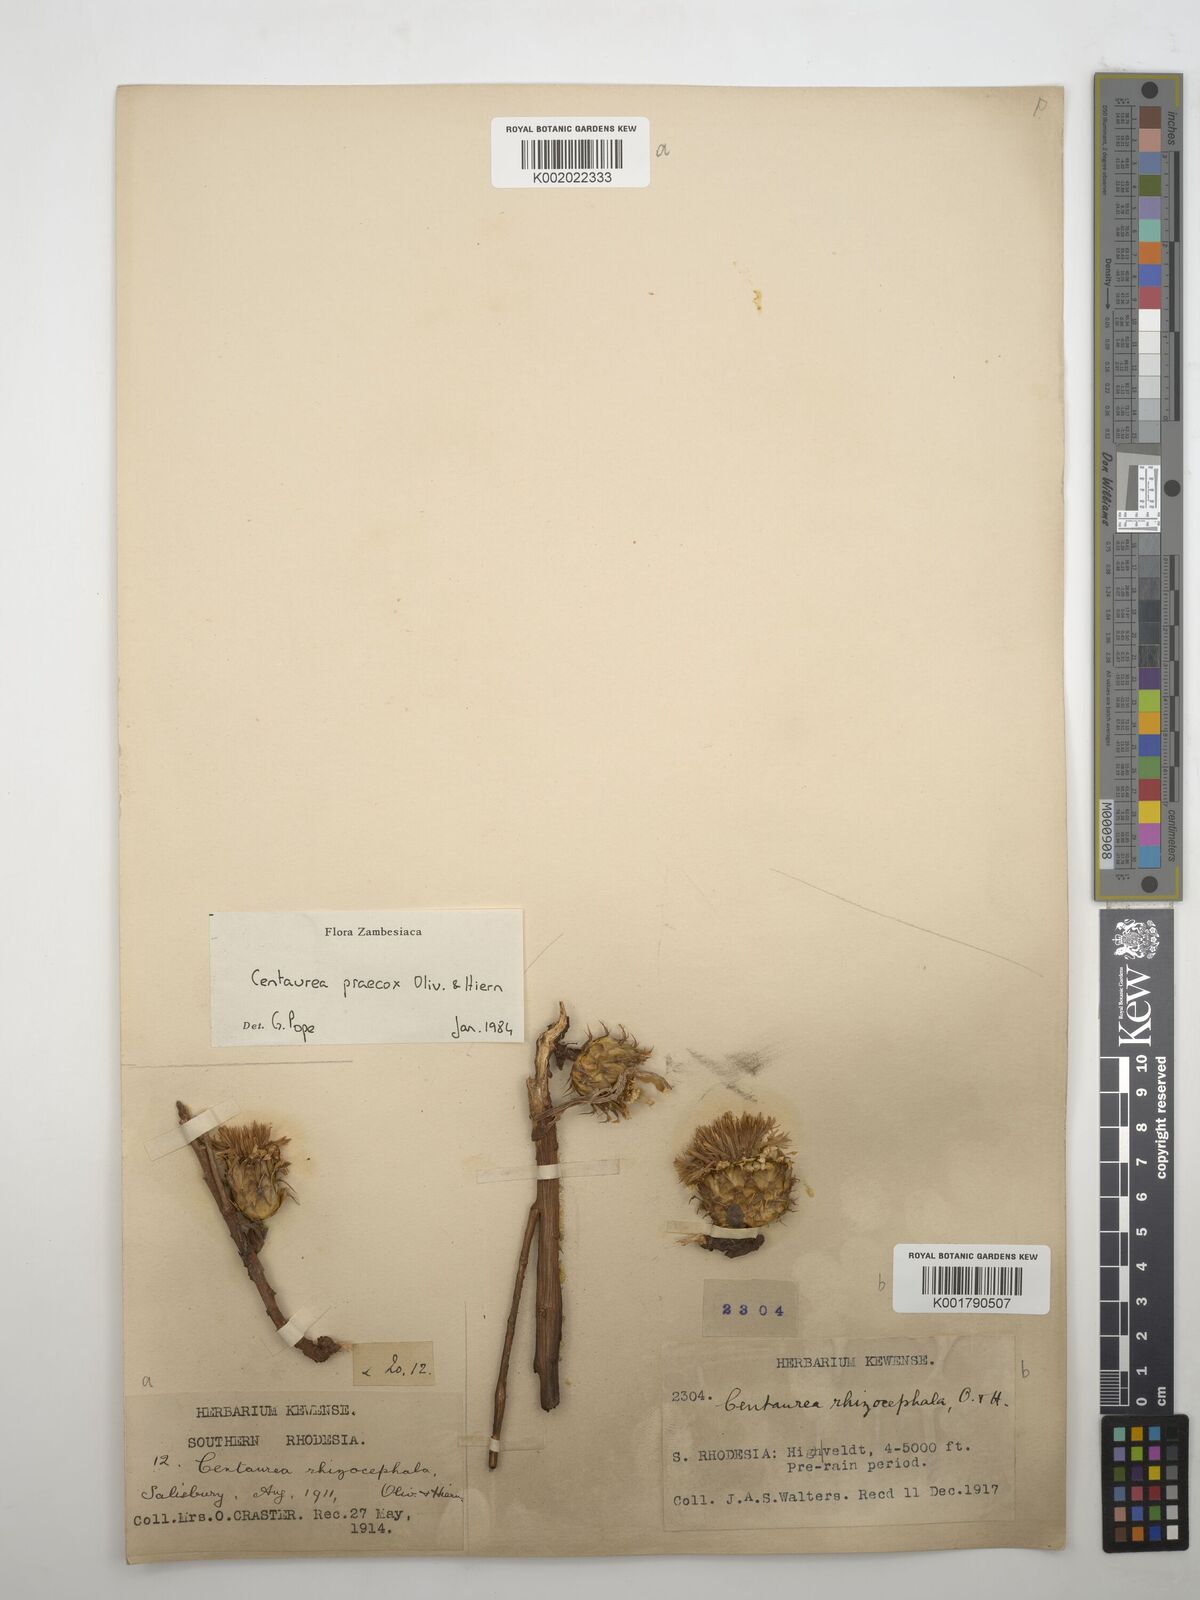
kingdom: Plantae
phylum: Tracheophyta
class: Magnoliopsida
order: Asterales
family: Asteraceae
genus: Centaurea
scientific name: Centaurea praecox
